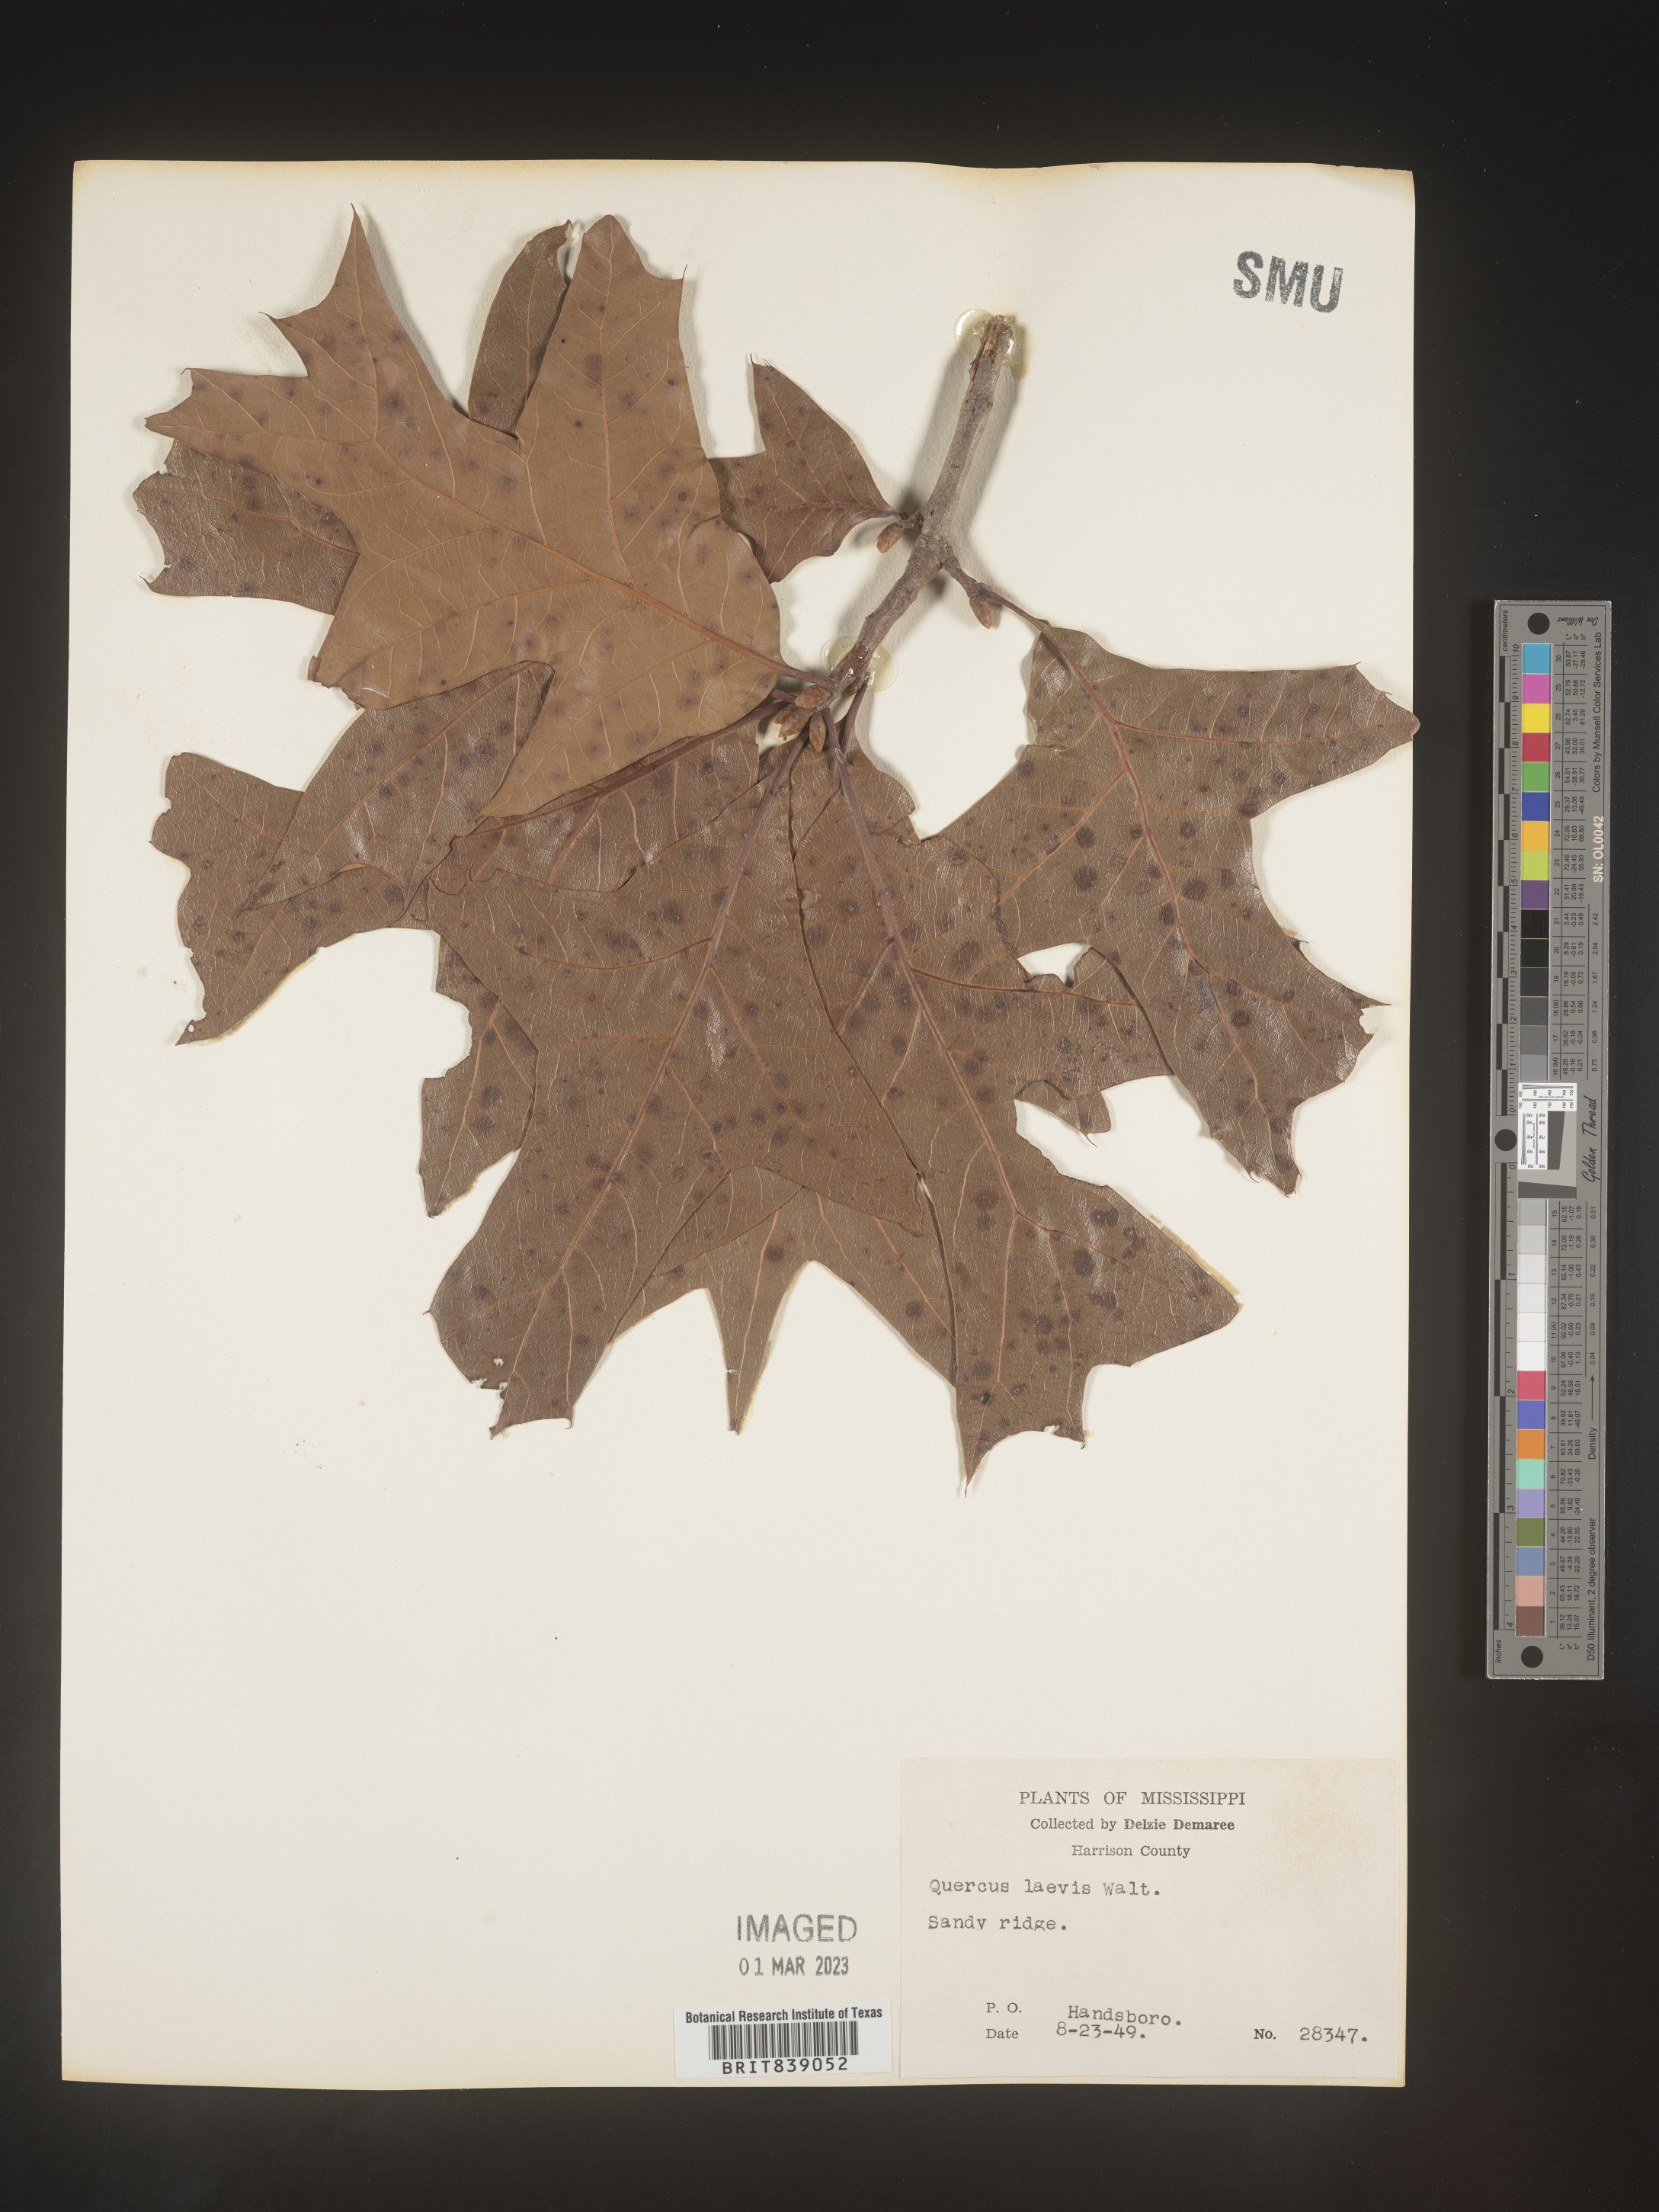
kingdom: Plantae
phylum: Tracheophyta
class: Magnoliopsida
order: Fagales
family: Fagaceae
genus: Quercus
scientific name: Quercus laevis
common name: Turkey oak
